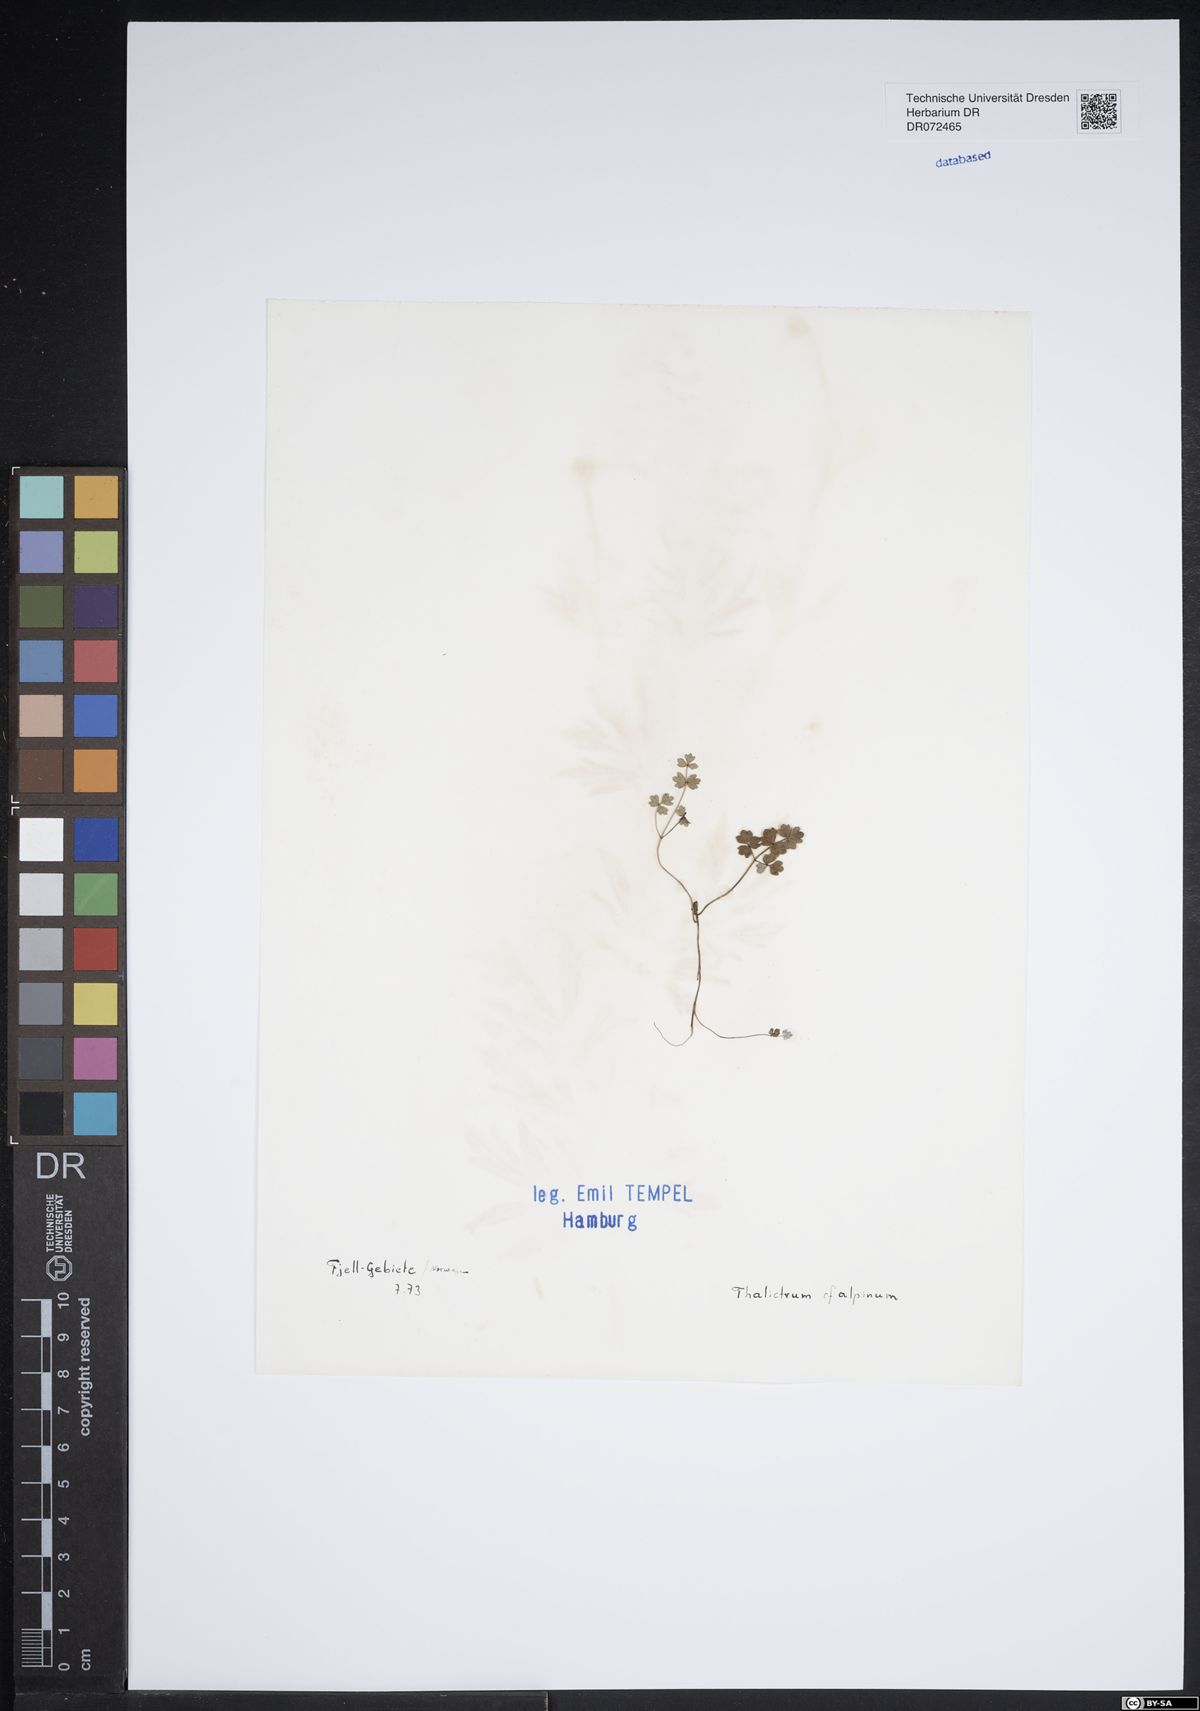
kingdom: Plantae
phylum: Tracheophyta
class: Magnoliopsida
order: Ranunculales
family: Ranunculaceae
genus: Thalictrum
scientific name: Thalictrum alpinum
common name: Alpine meadow-rue
